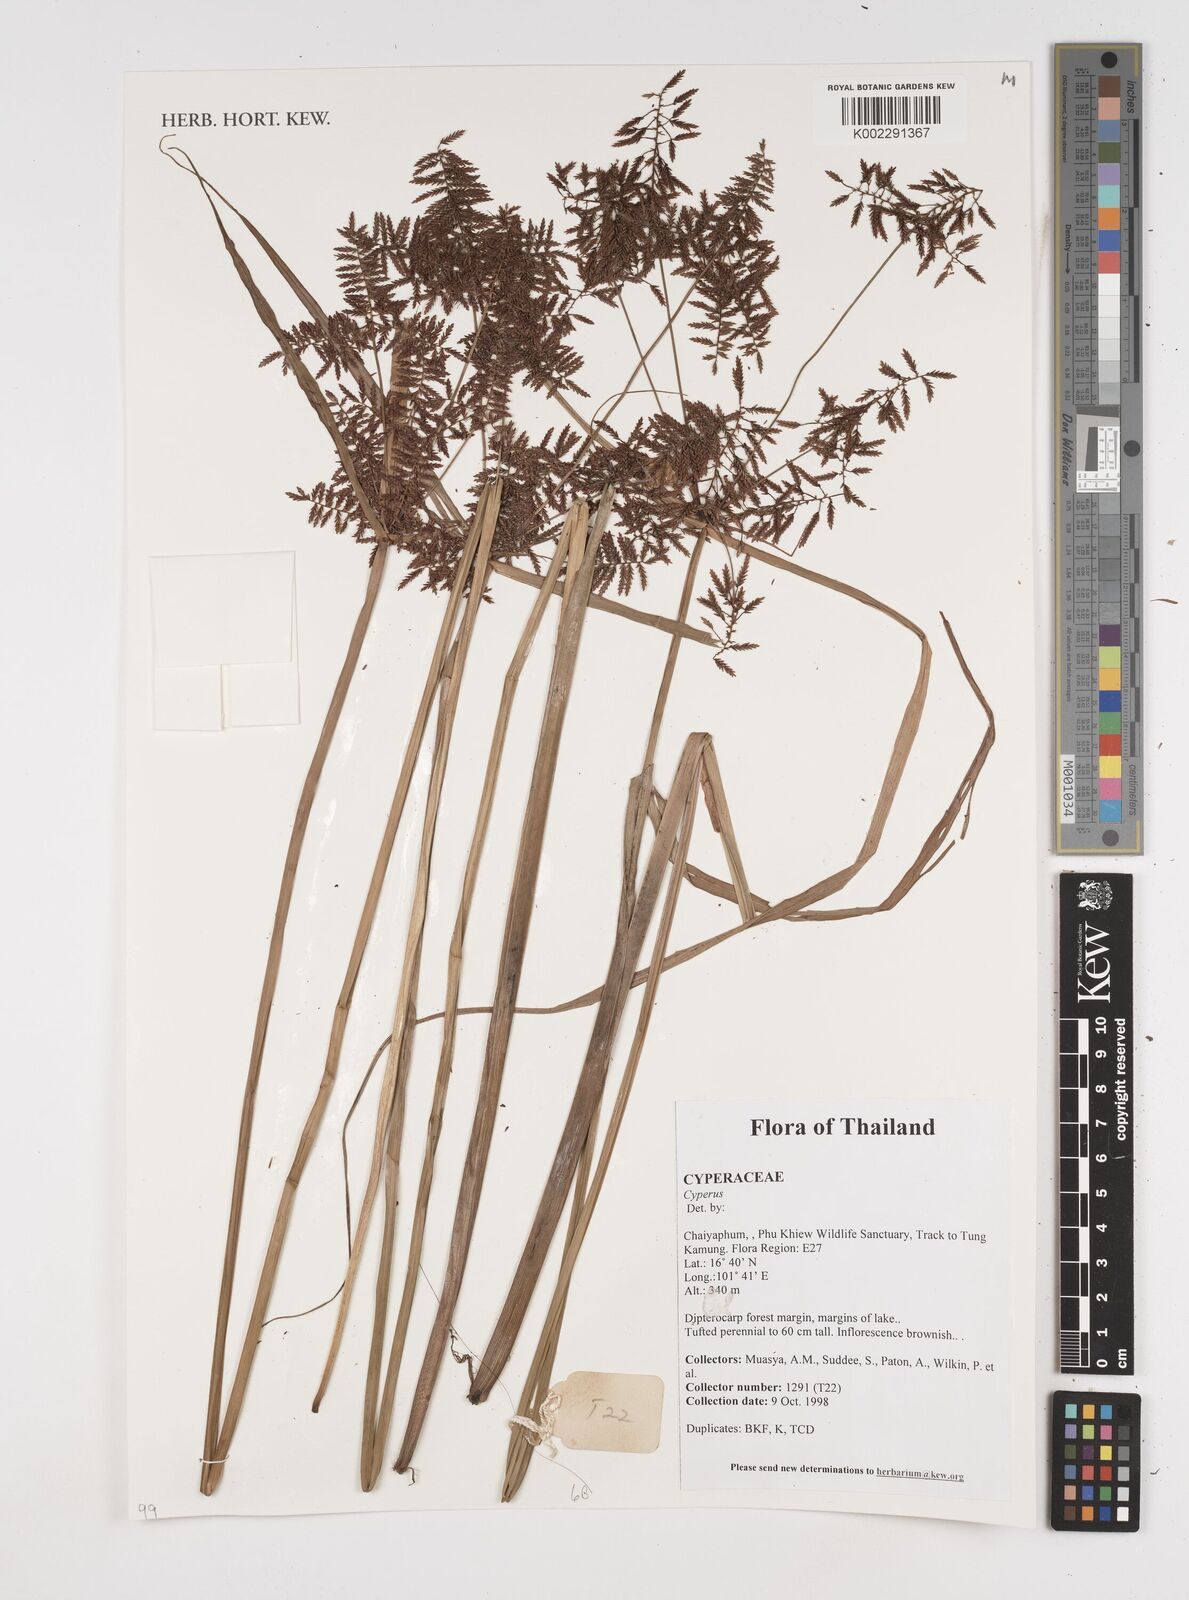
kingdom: Plantae
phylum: Tracheophyta
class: Liliopsida
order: Poales
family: Cyperaceae
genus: Cyperus
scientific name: Cyperus
